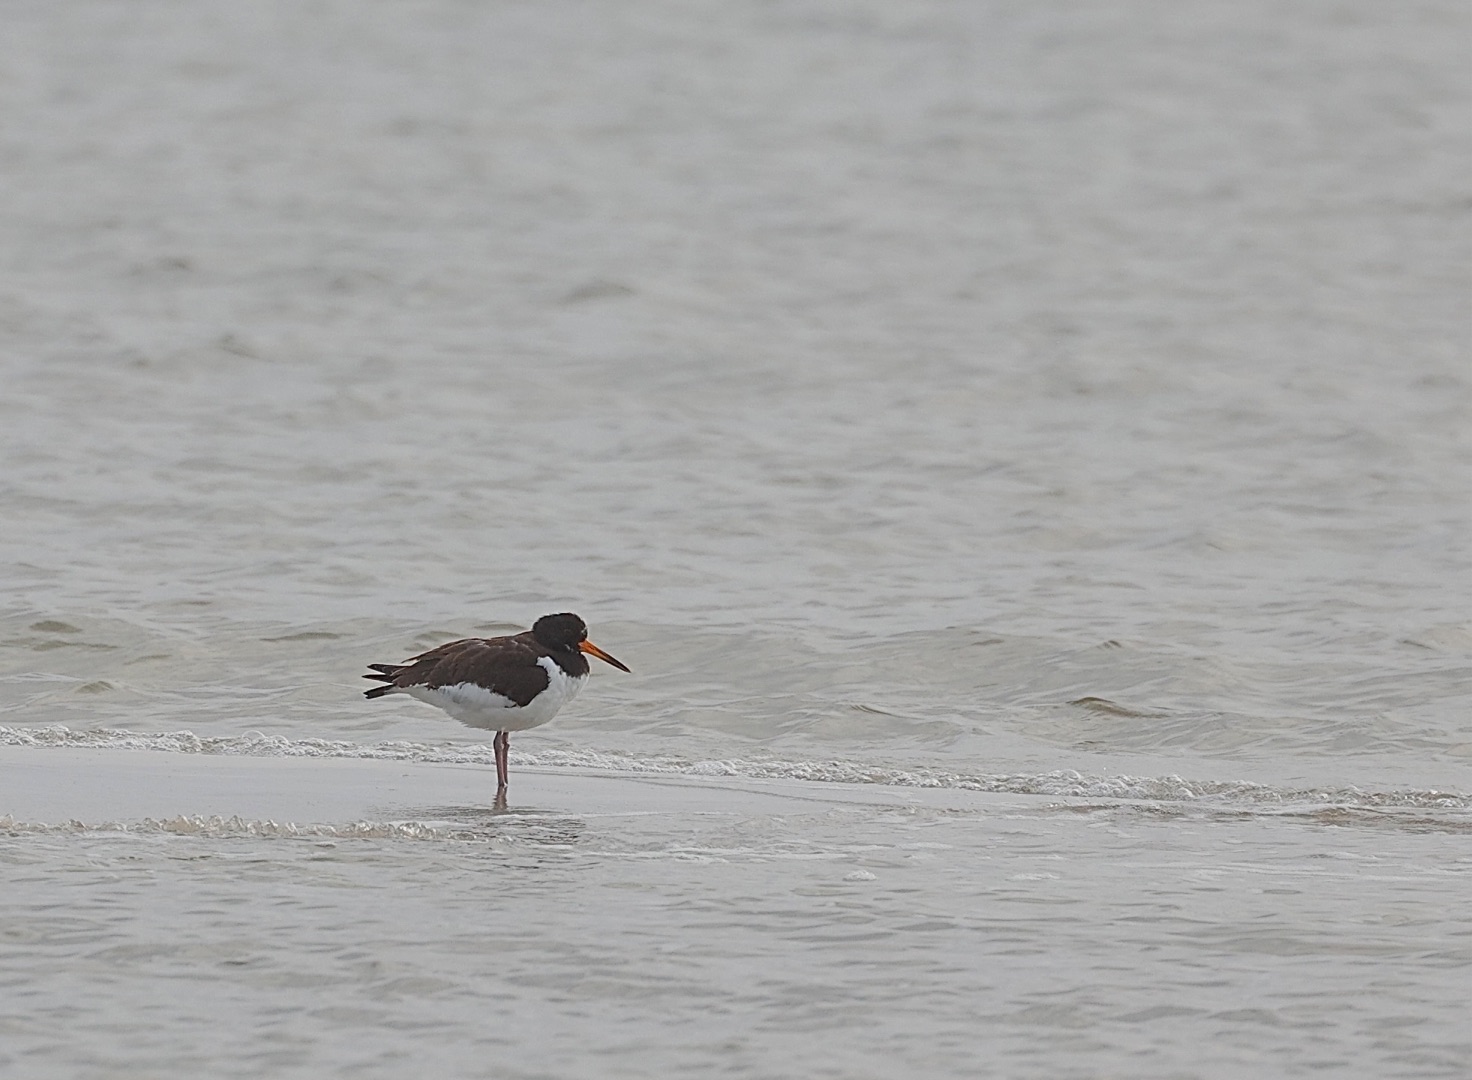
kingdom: Animalia
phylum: Chordata
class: Aves
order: Charadriiformes
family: Haematopodidae
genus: Haematopus
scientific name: Haematopus ostralegus
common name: Strandskade
